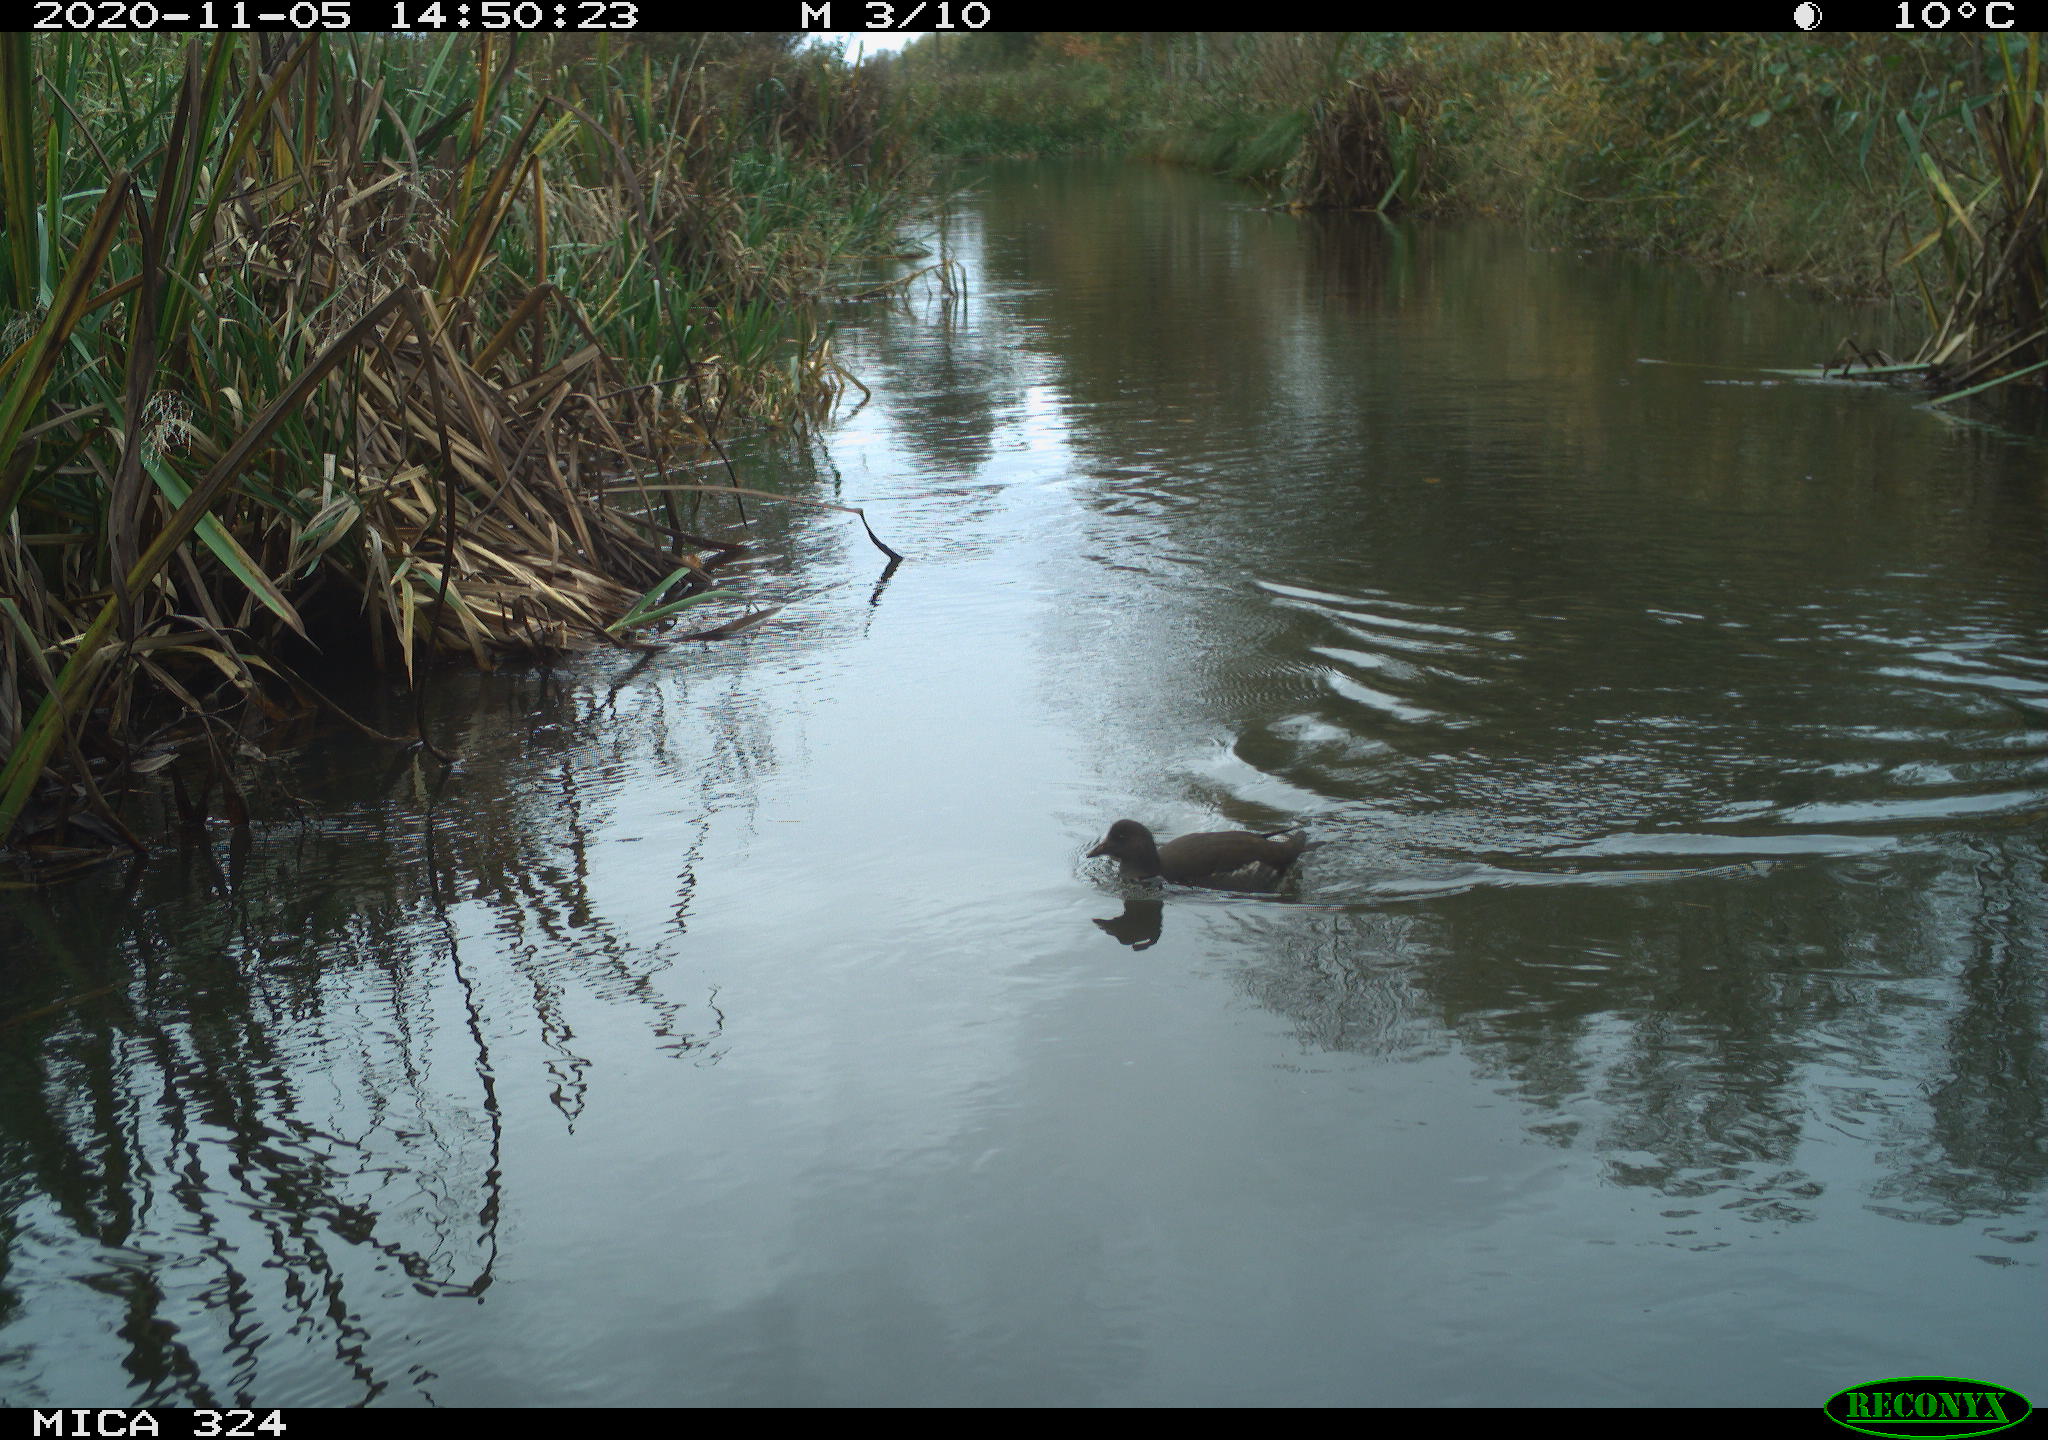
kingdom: Animalia
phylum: Chordata
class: Aves
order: Gruiformes
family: Rallidae
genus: Gallinula
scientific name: Gallinula chloropus
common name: Common moorhen
